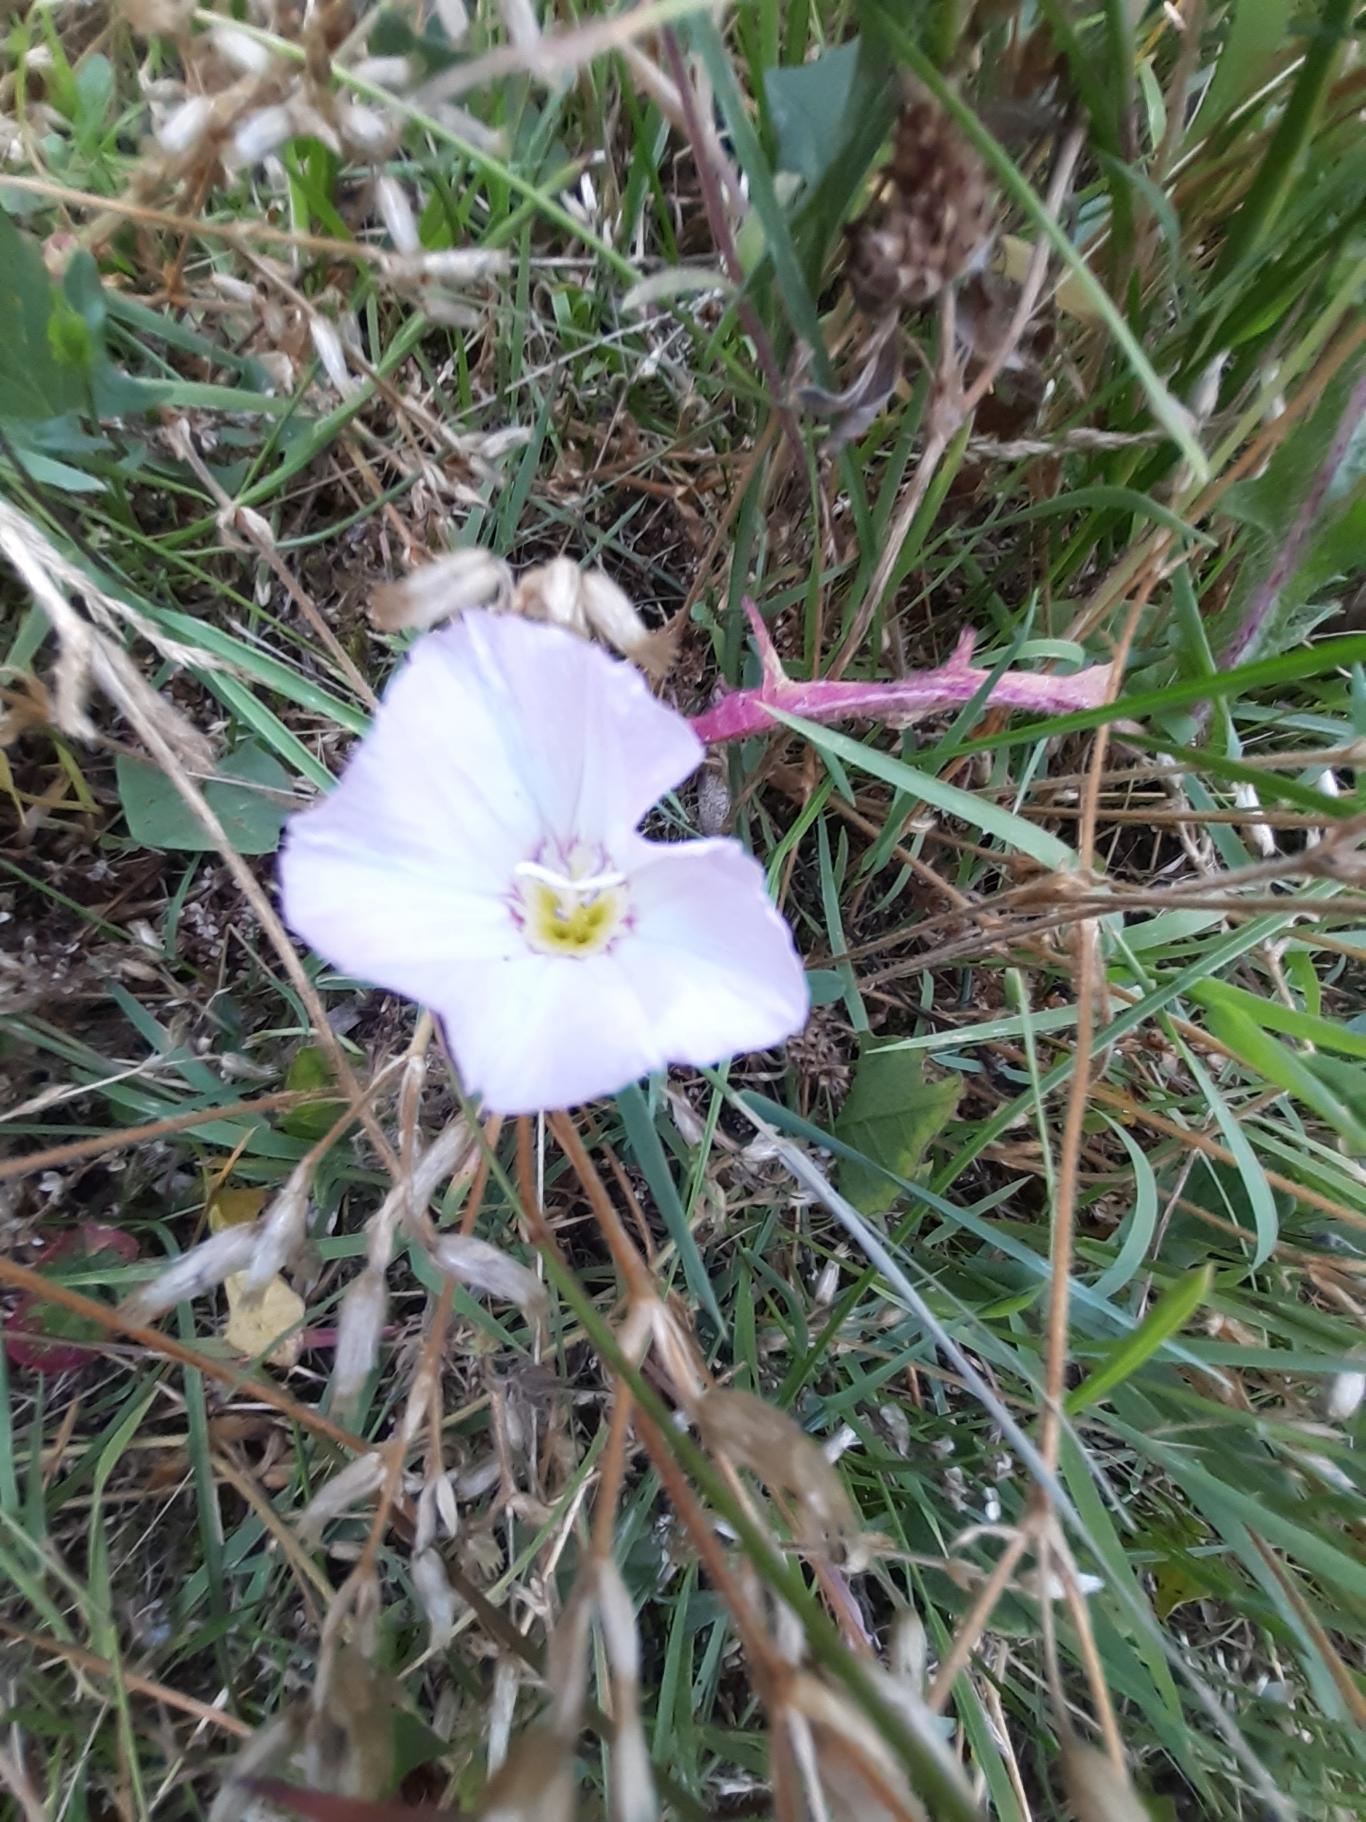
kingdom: Plantae
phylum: Tracheophyta
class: Magnoliopsida
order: Solanales
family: Convolvulaceae
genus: Convolvulus
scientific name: Convolvulus arvensis
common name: Ager-snerle
